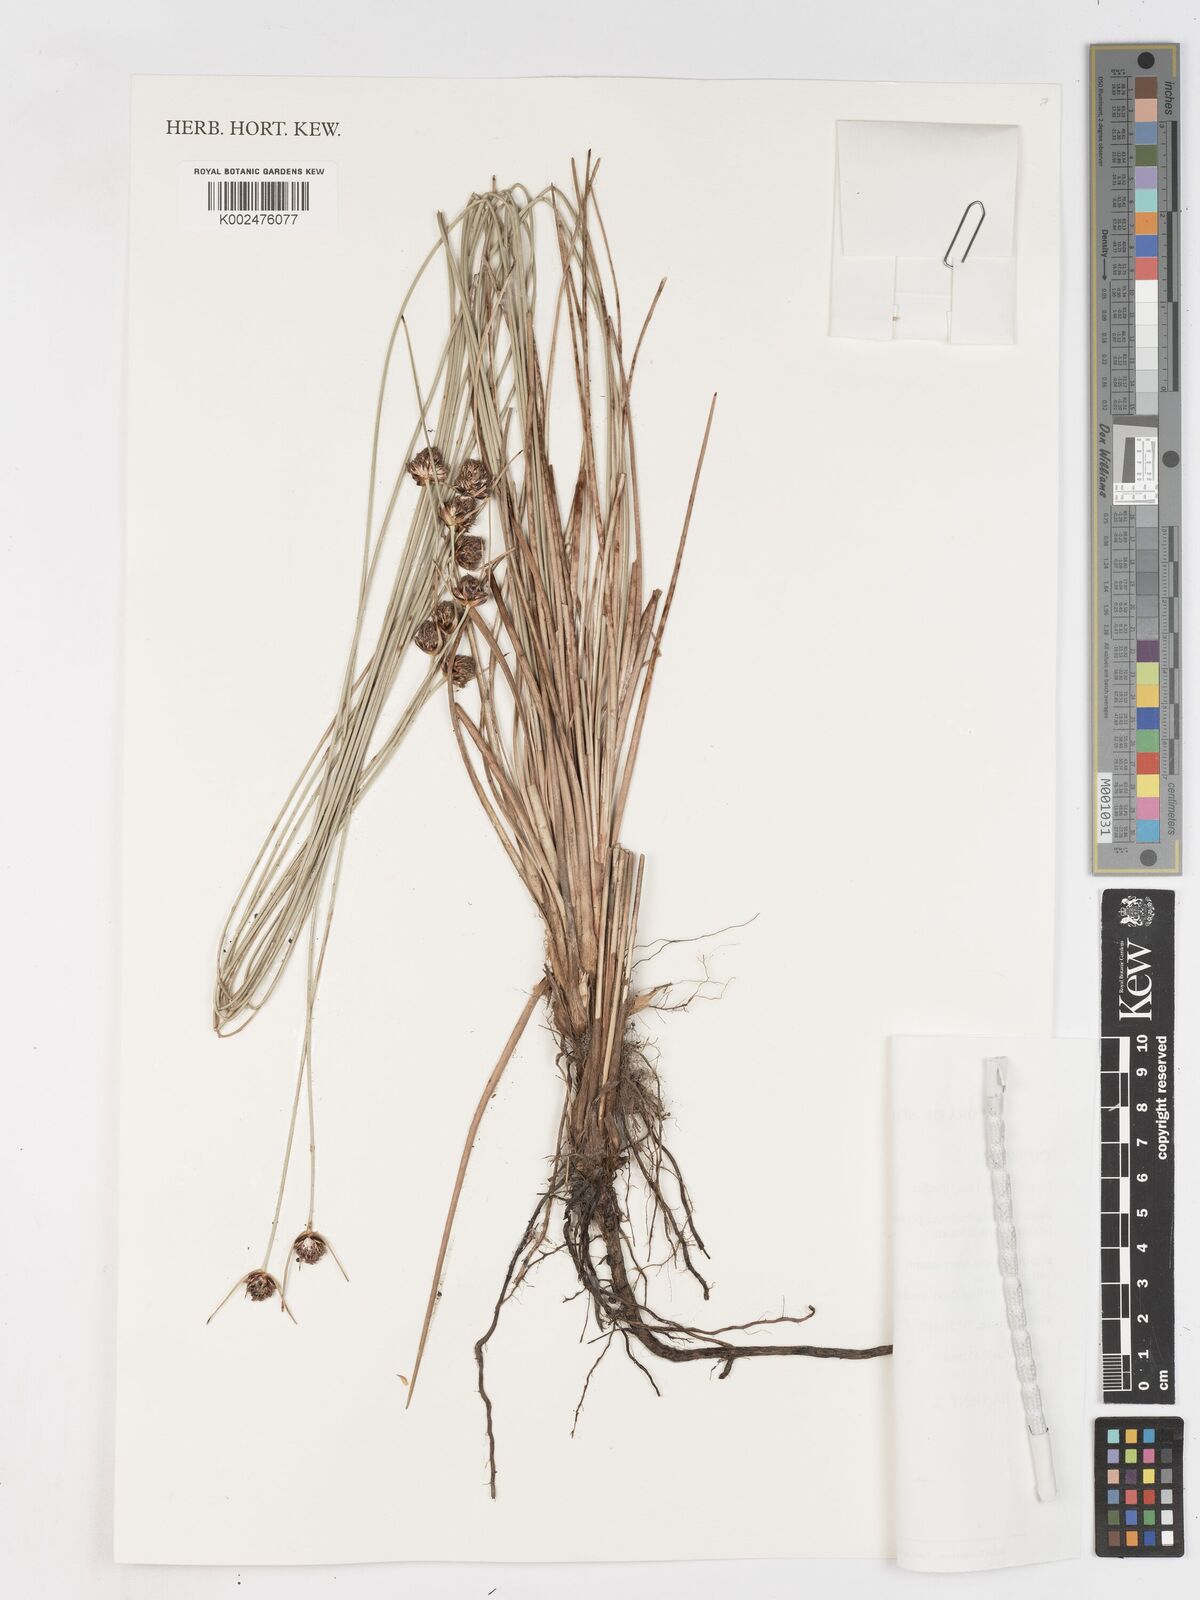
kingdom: Plantae
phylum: Tracheophyta
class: Liliopsida
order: Poales
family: Cyperaceae
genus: Ficinia
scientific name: Ficinia indica
